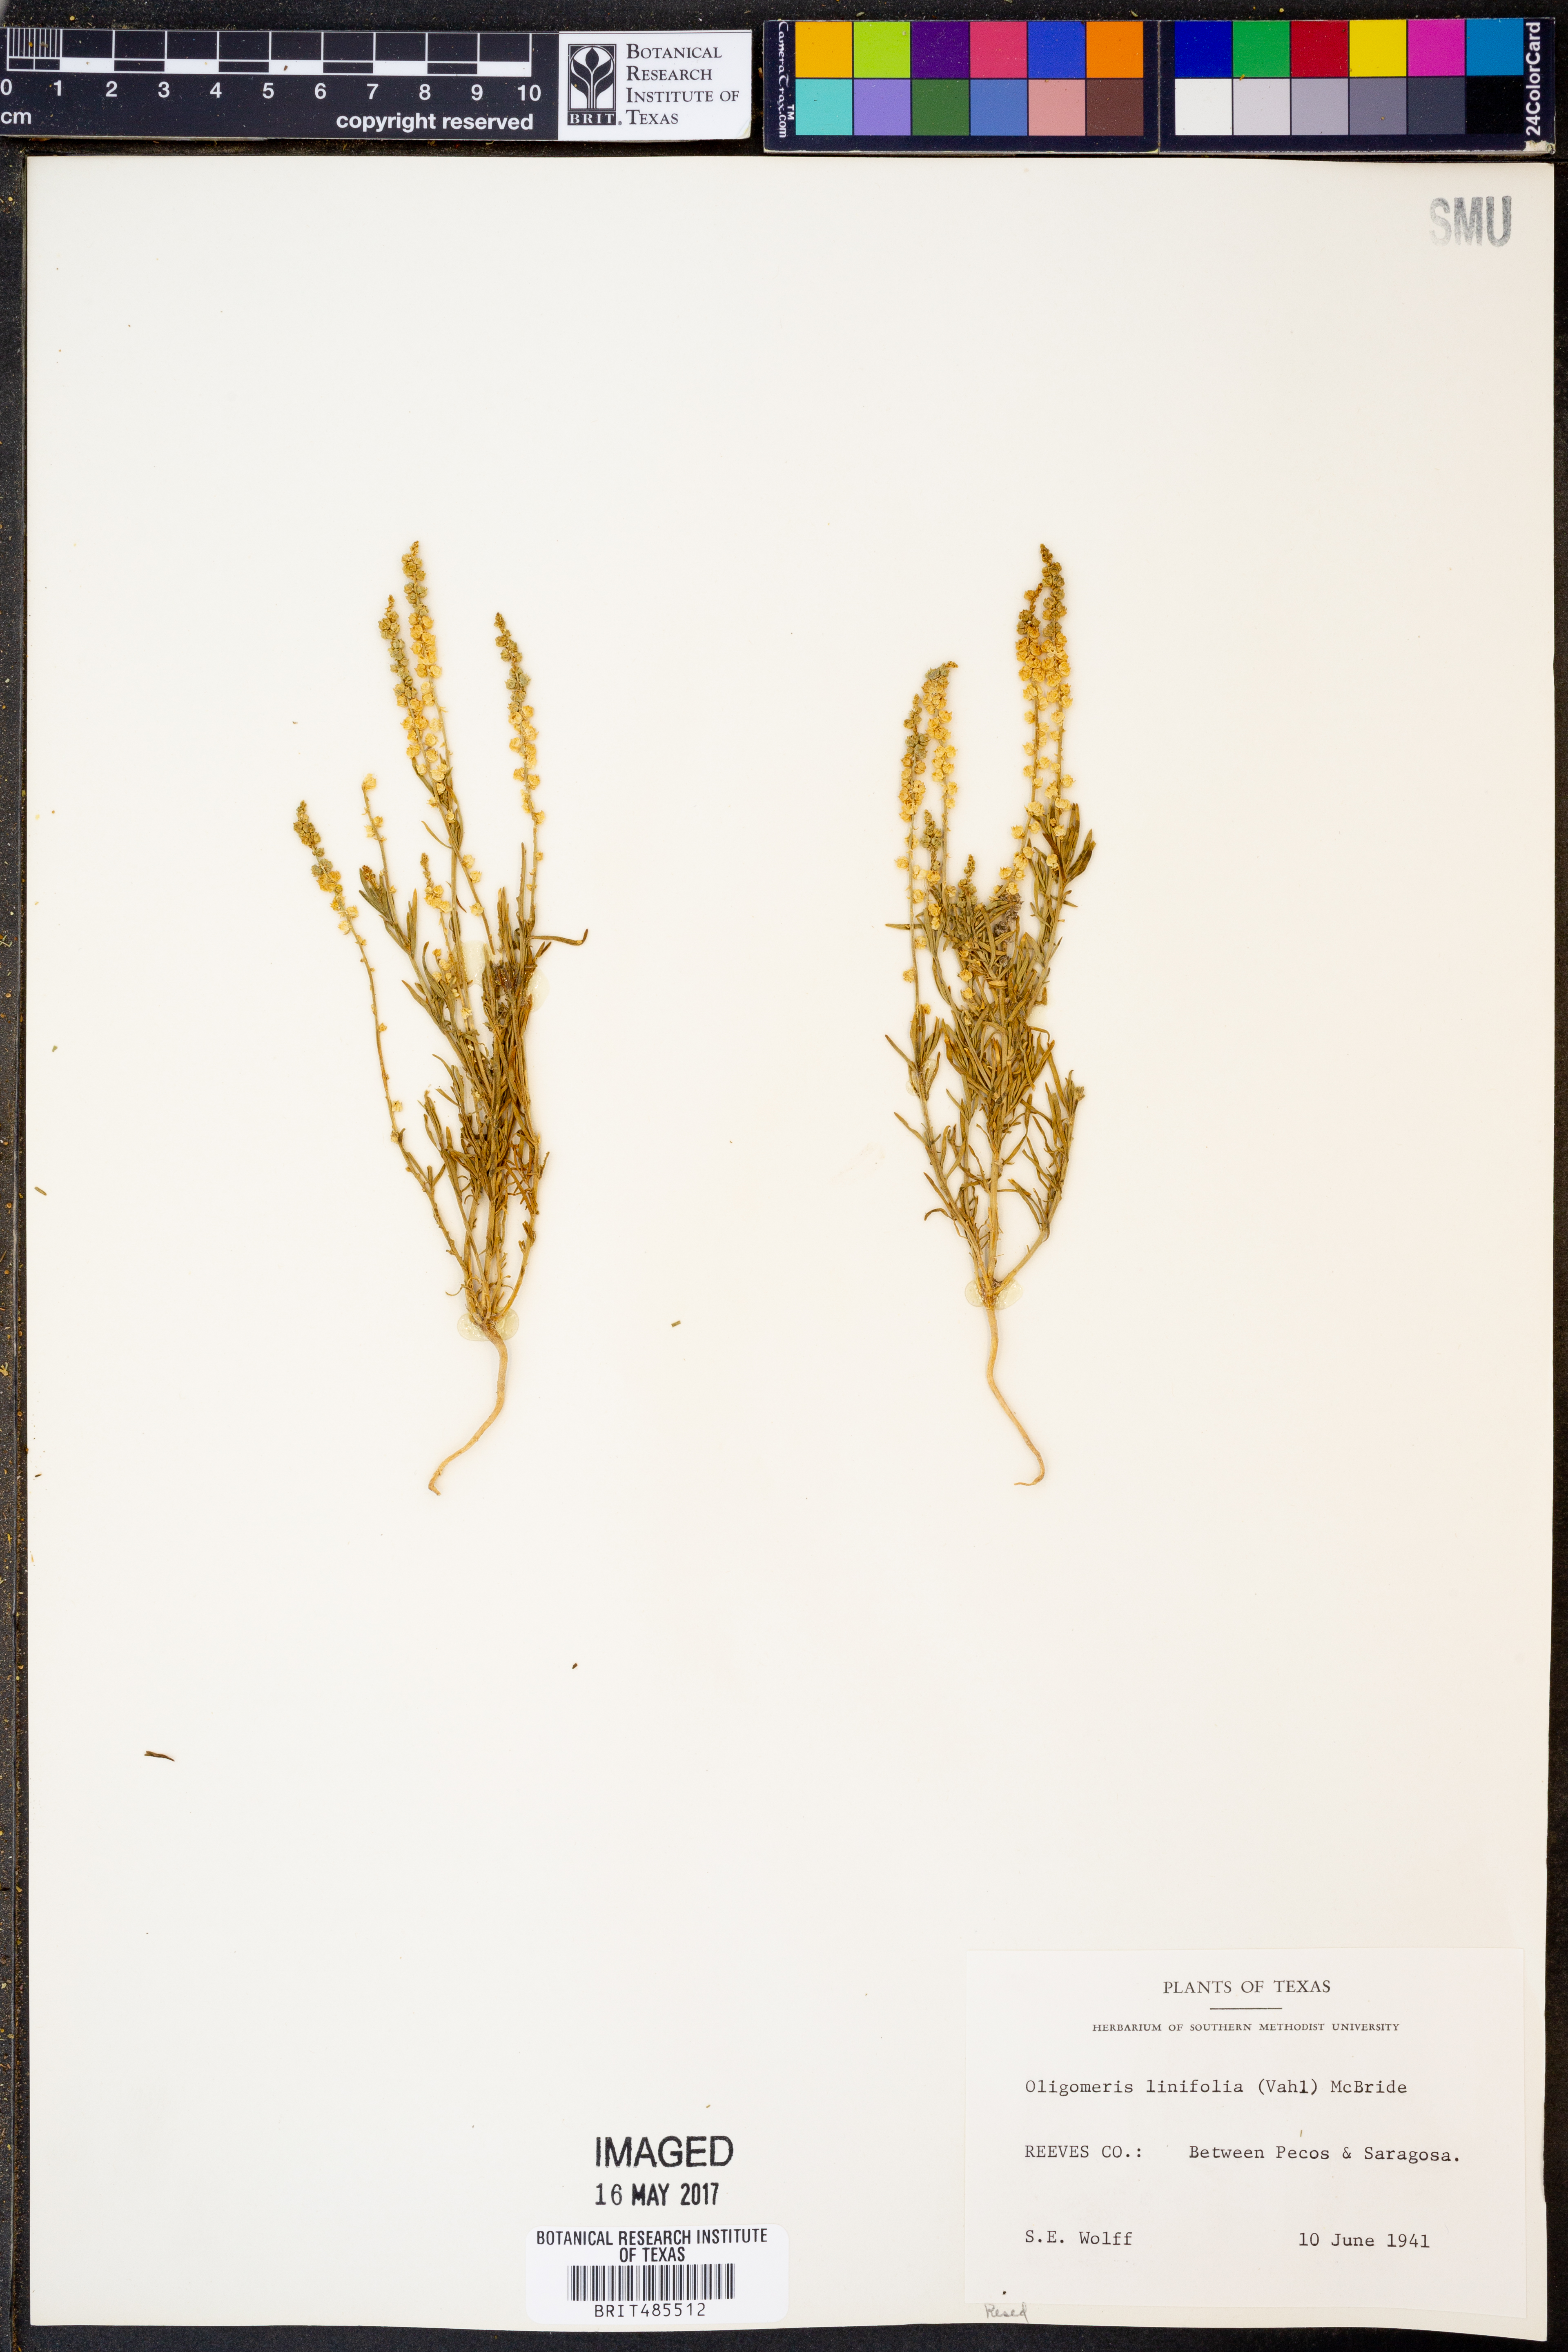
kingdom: Plantae
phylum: Tracheophyta
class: Magnoliopsida
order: Brassicales
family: Resedaceae
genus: Oligomeris
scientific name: Oligomeris linifolia
